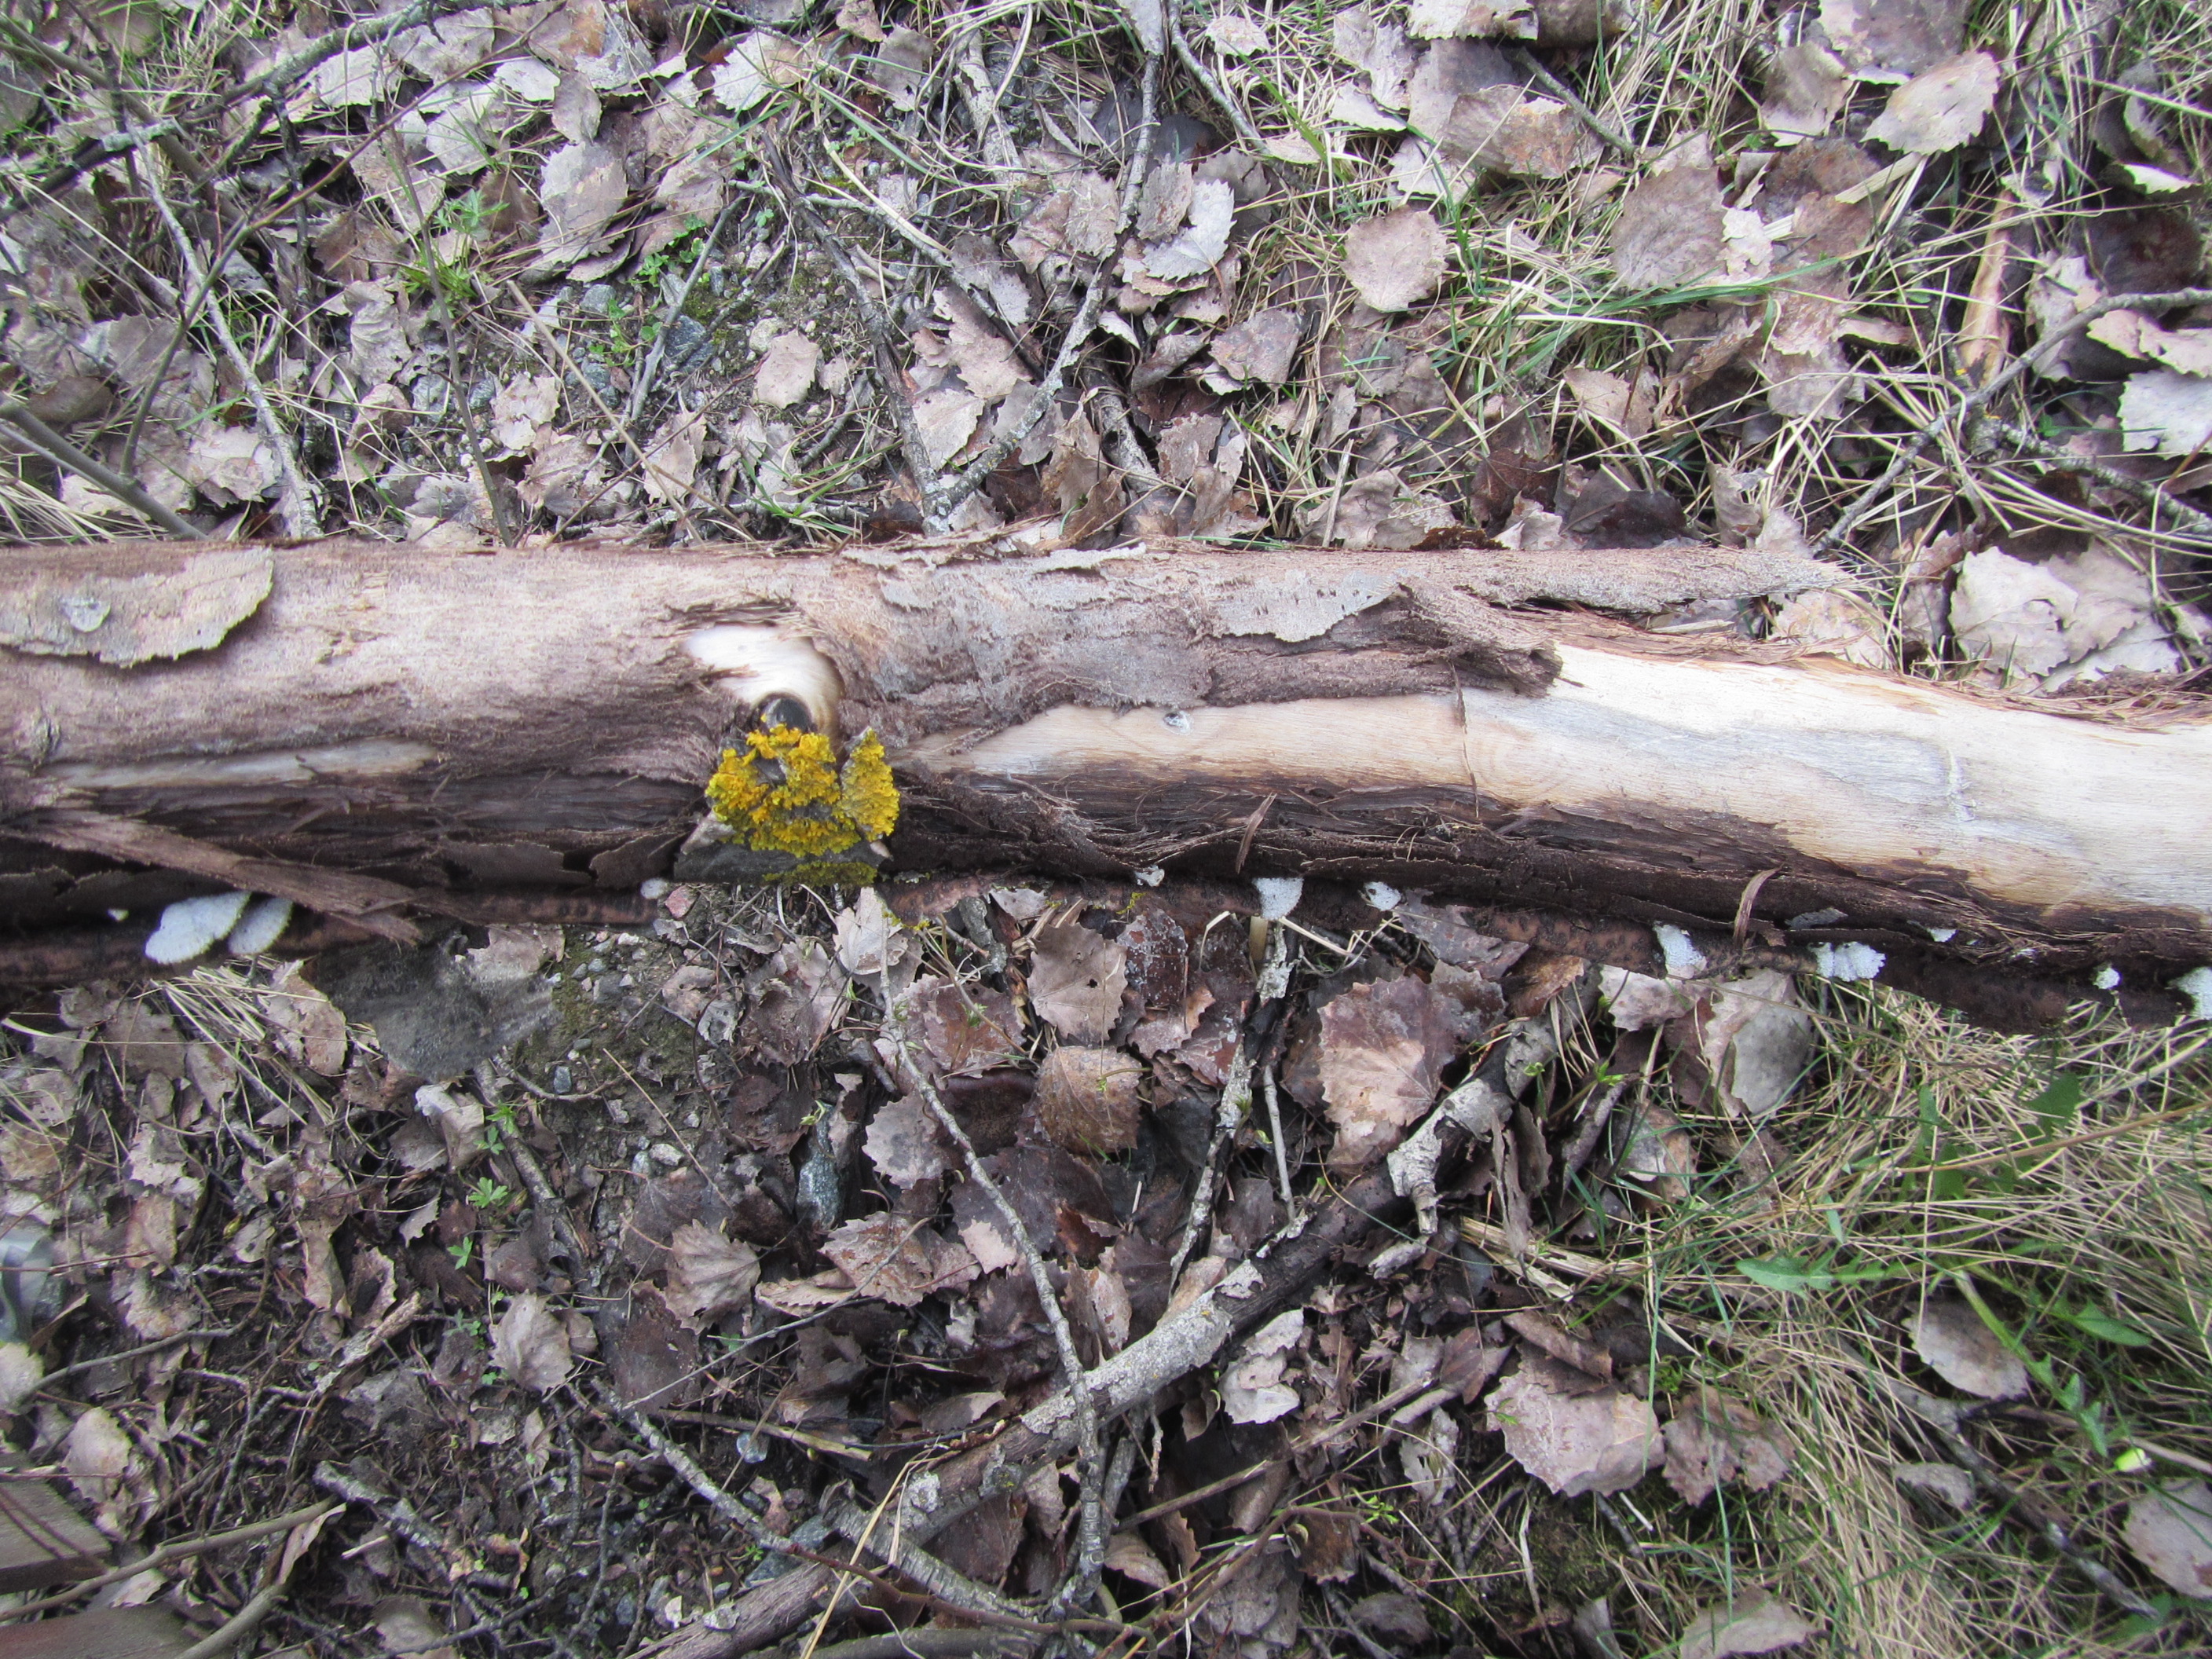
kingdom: Fungi
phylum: Basidiomycota
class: Agaricomycetes
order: Agaricales
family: Schizophyllaceae
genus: Schizophyllum
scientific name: Schizophyllum commune
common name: Common porecrust
